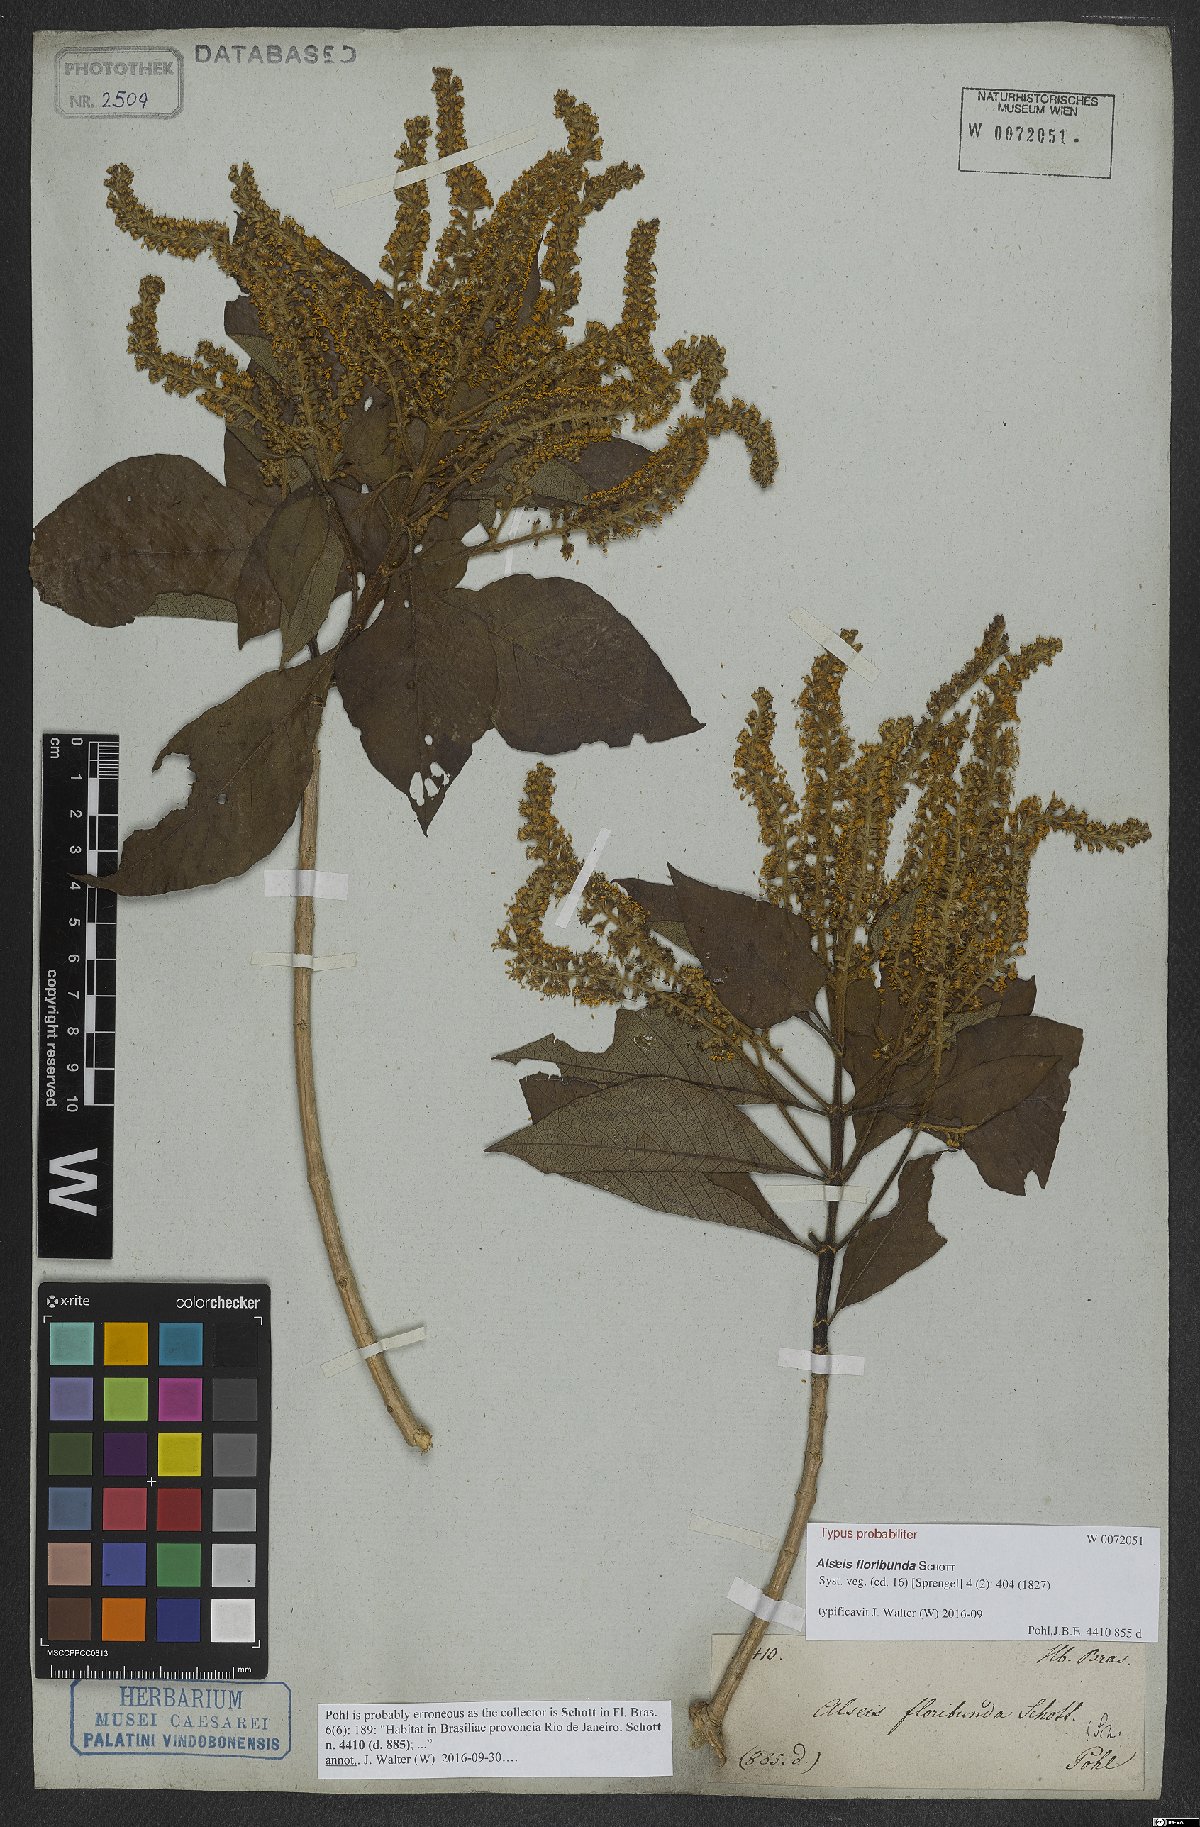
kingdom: Plantae
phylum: Tracheophyta
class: Magnoliopsida
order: Gentianales
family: Rubiaceae
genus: Alseis
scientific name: Alseis floribunda
